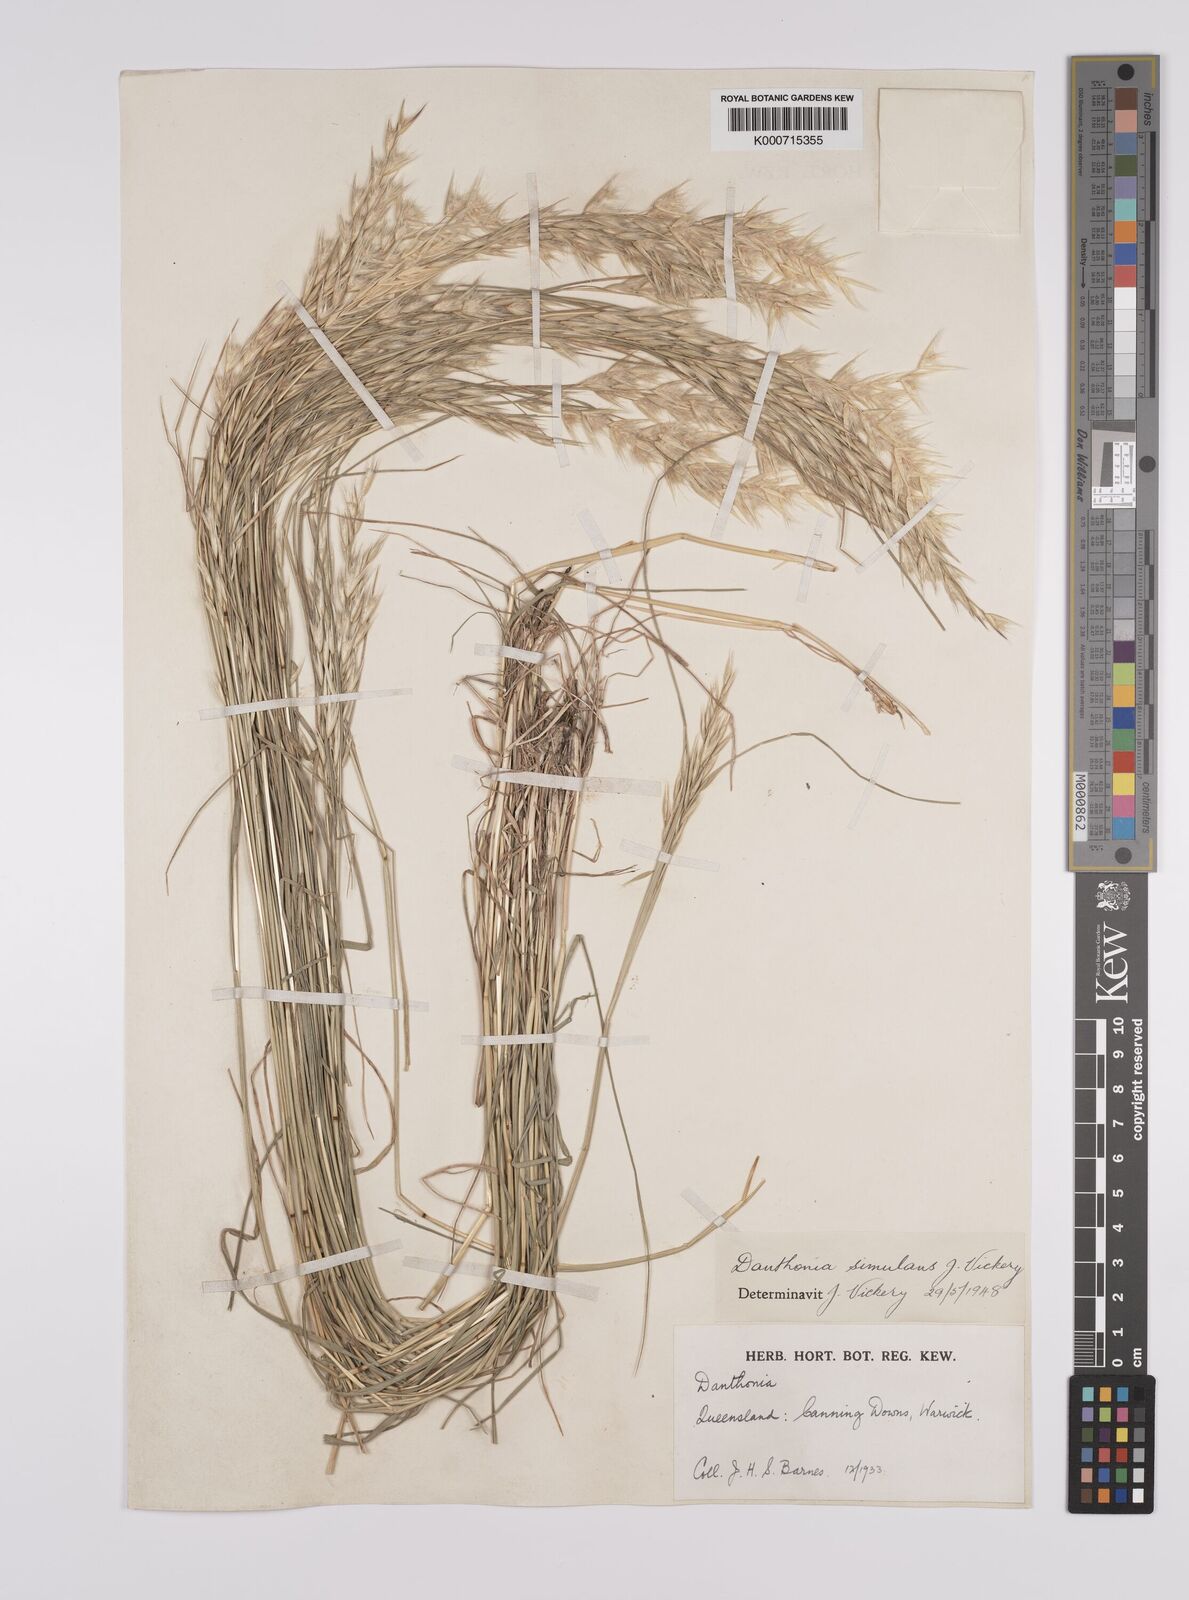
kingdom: Plantae
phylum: Tracheophyta
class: Liliopsida
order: Poales
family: Poaceae
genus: Rytidosperma
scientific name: Rytidosperma bipartitum
